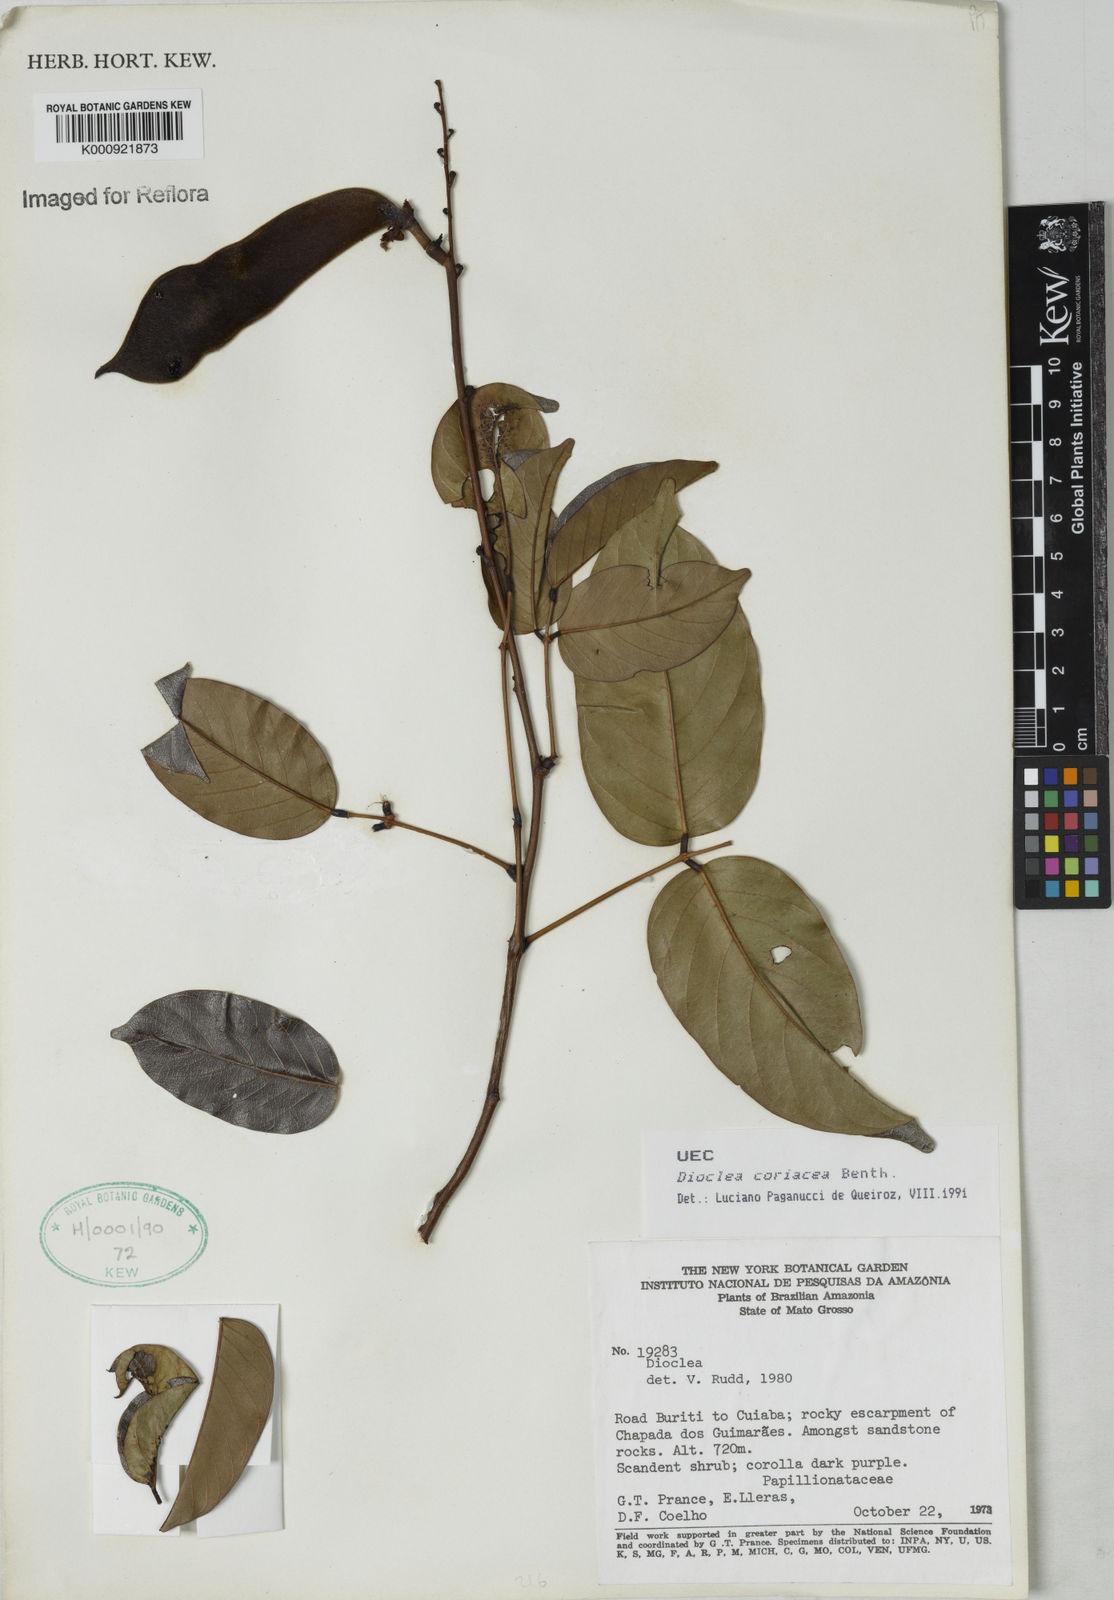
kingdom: Plantae
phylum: Tracheophyta
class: Magnoliopsida
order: Fabales
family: Fabaceae
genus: Macropsychanthus
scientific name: Macropsychanthus coriaceus
